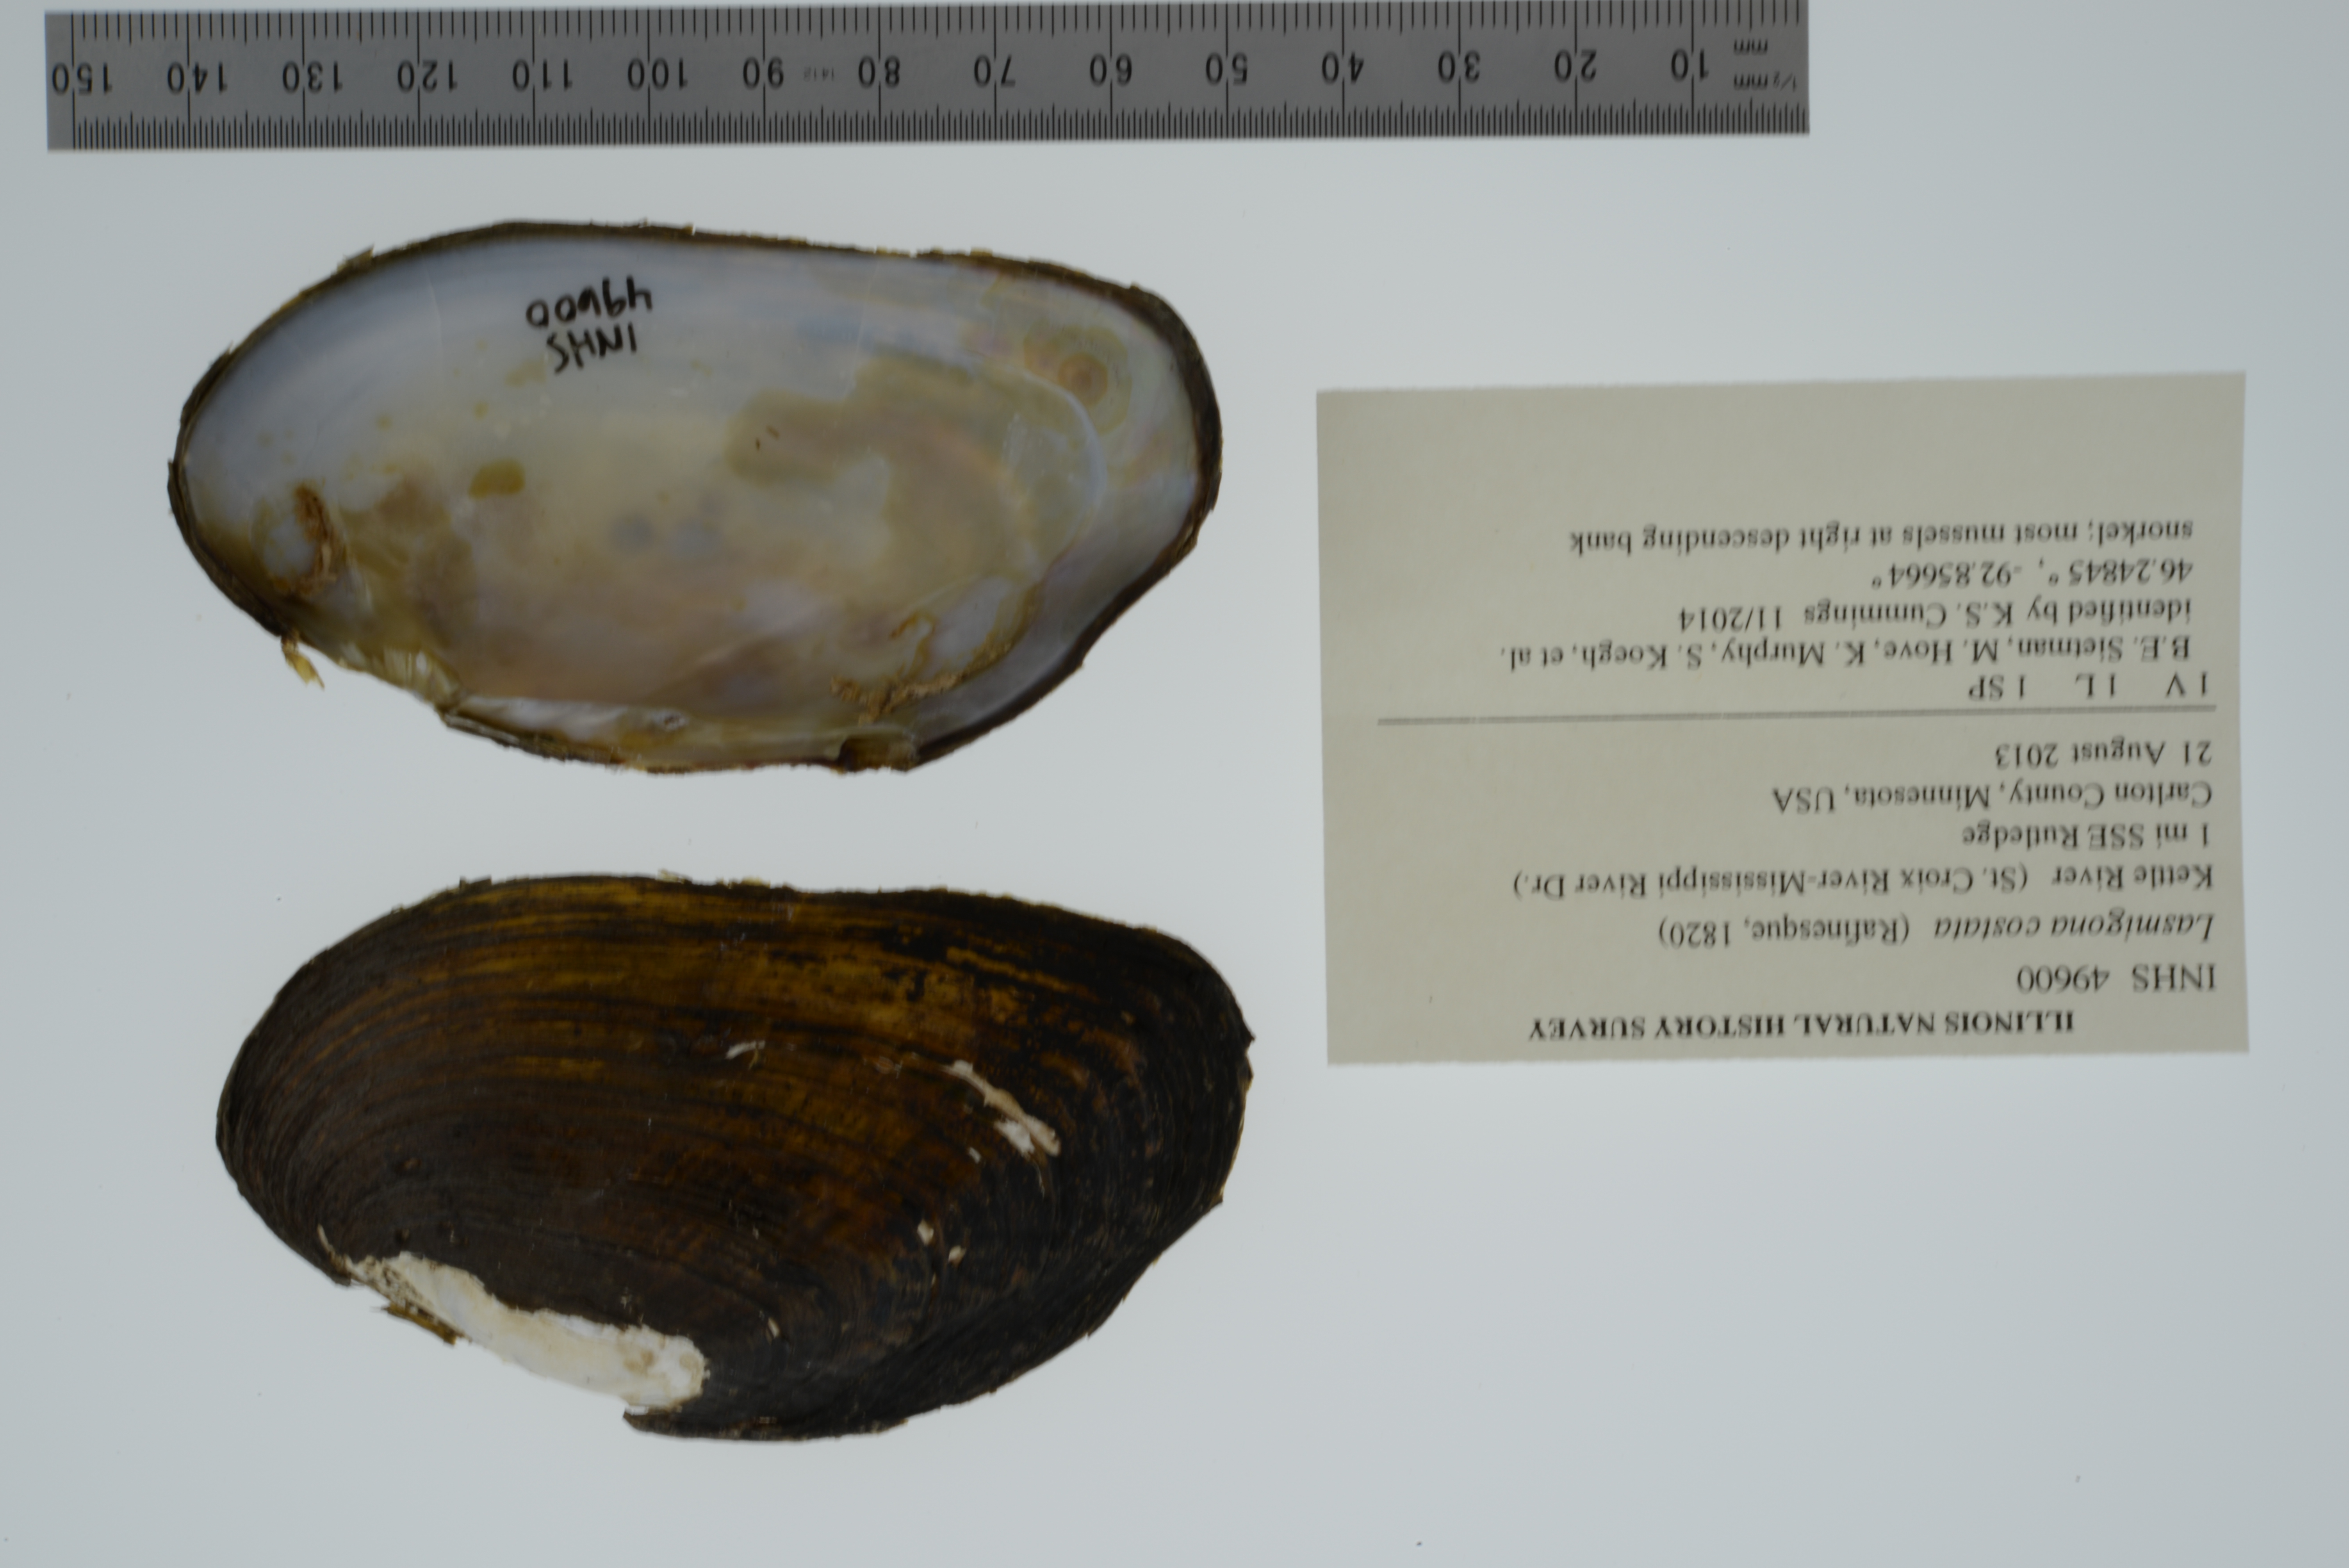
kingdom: Animalia
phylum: Mollusca
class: Bivalvia
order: Unionida
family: Unionidae
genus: Lasmigona
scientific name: Lasmigona costata
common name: Flutedshell
